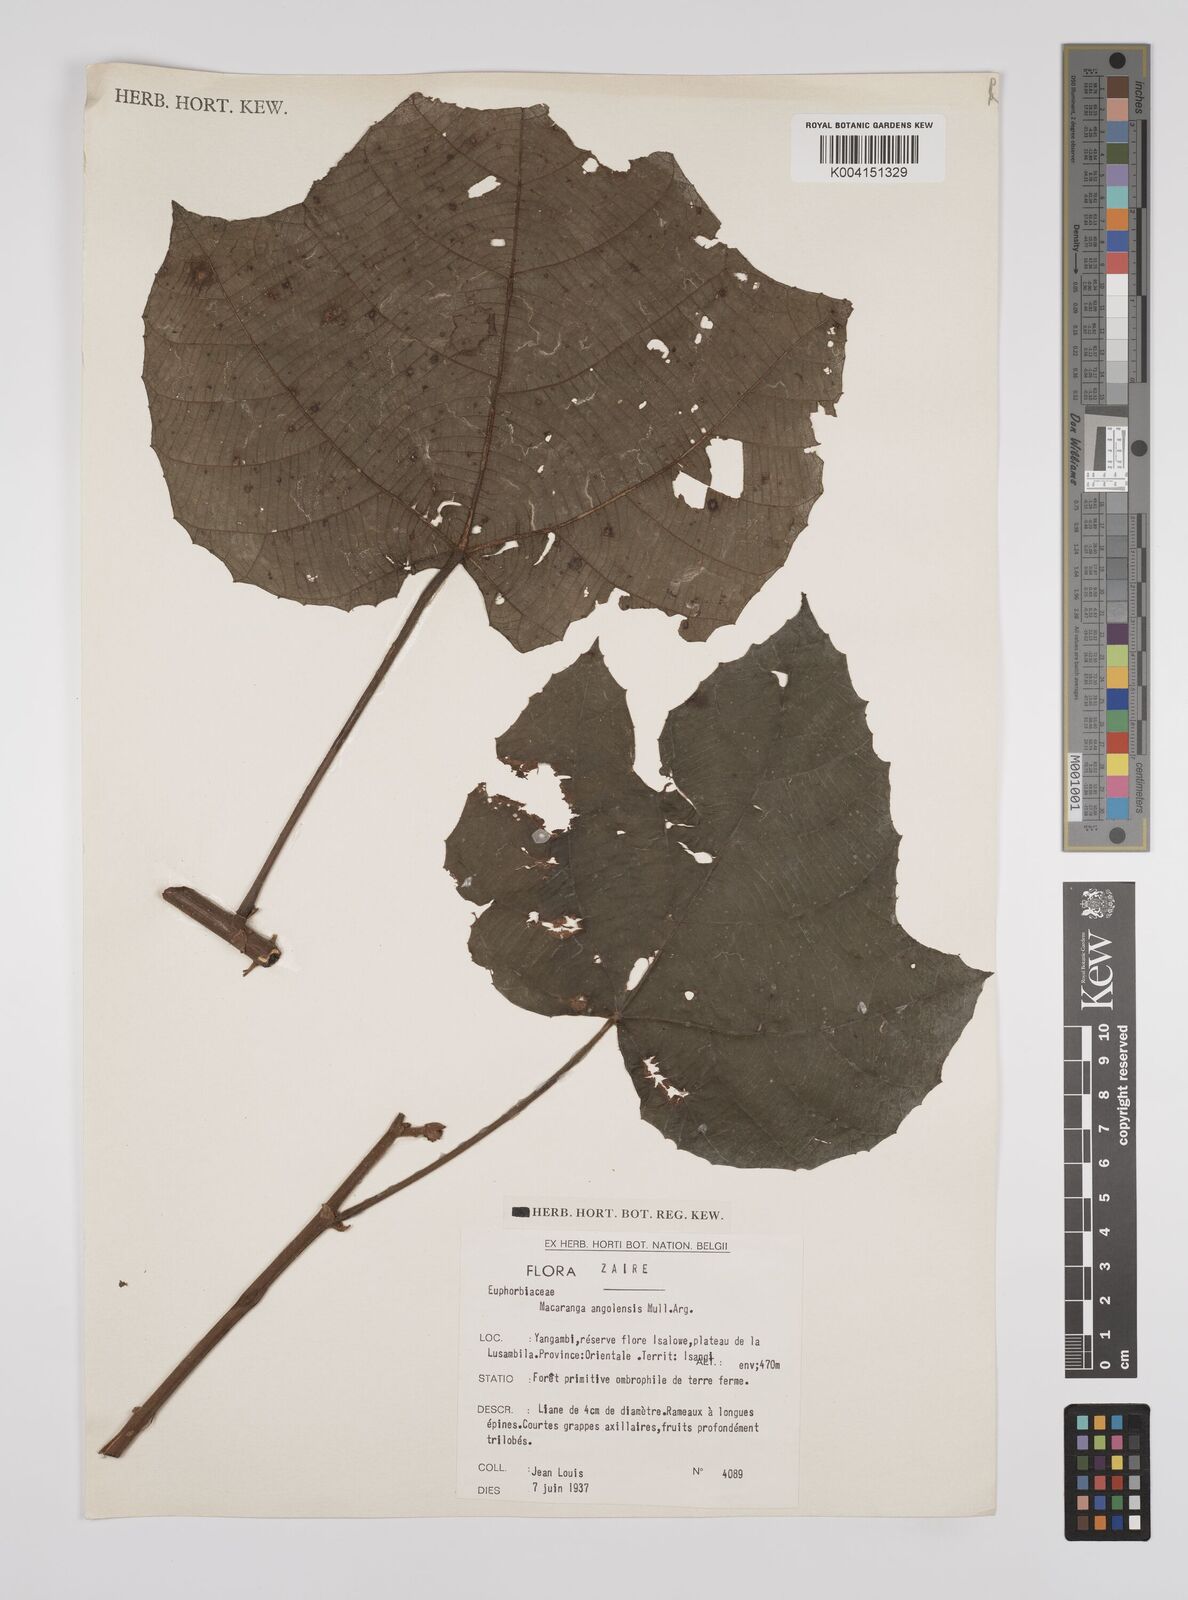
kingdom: Plantae
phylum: Tracheophyta
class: Magnoliopsida
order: Malpighiales
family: Euphorbiaceae
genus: Macaranga
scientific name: Macaranga angolensis
